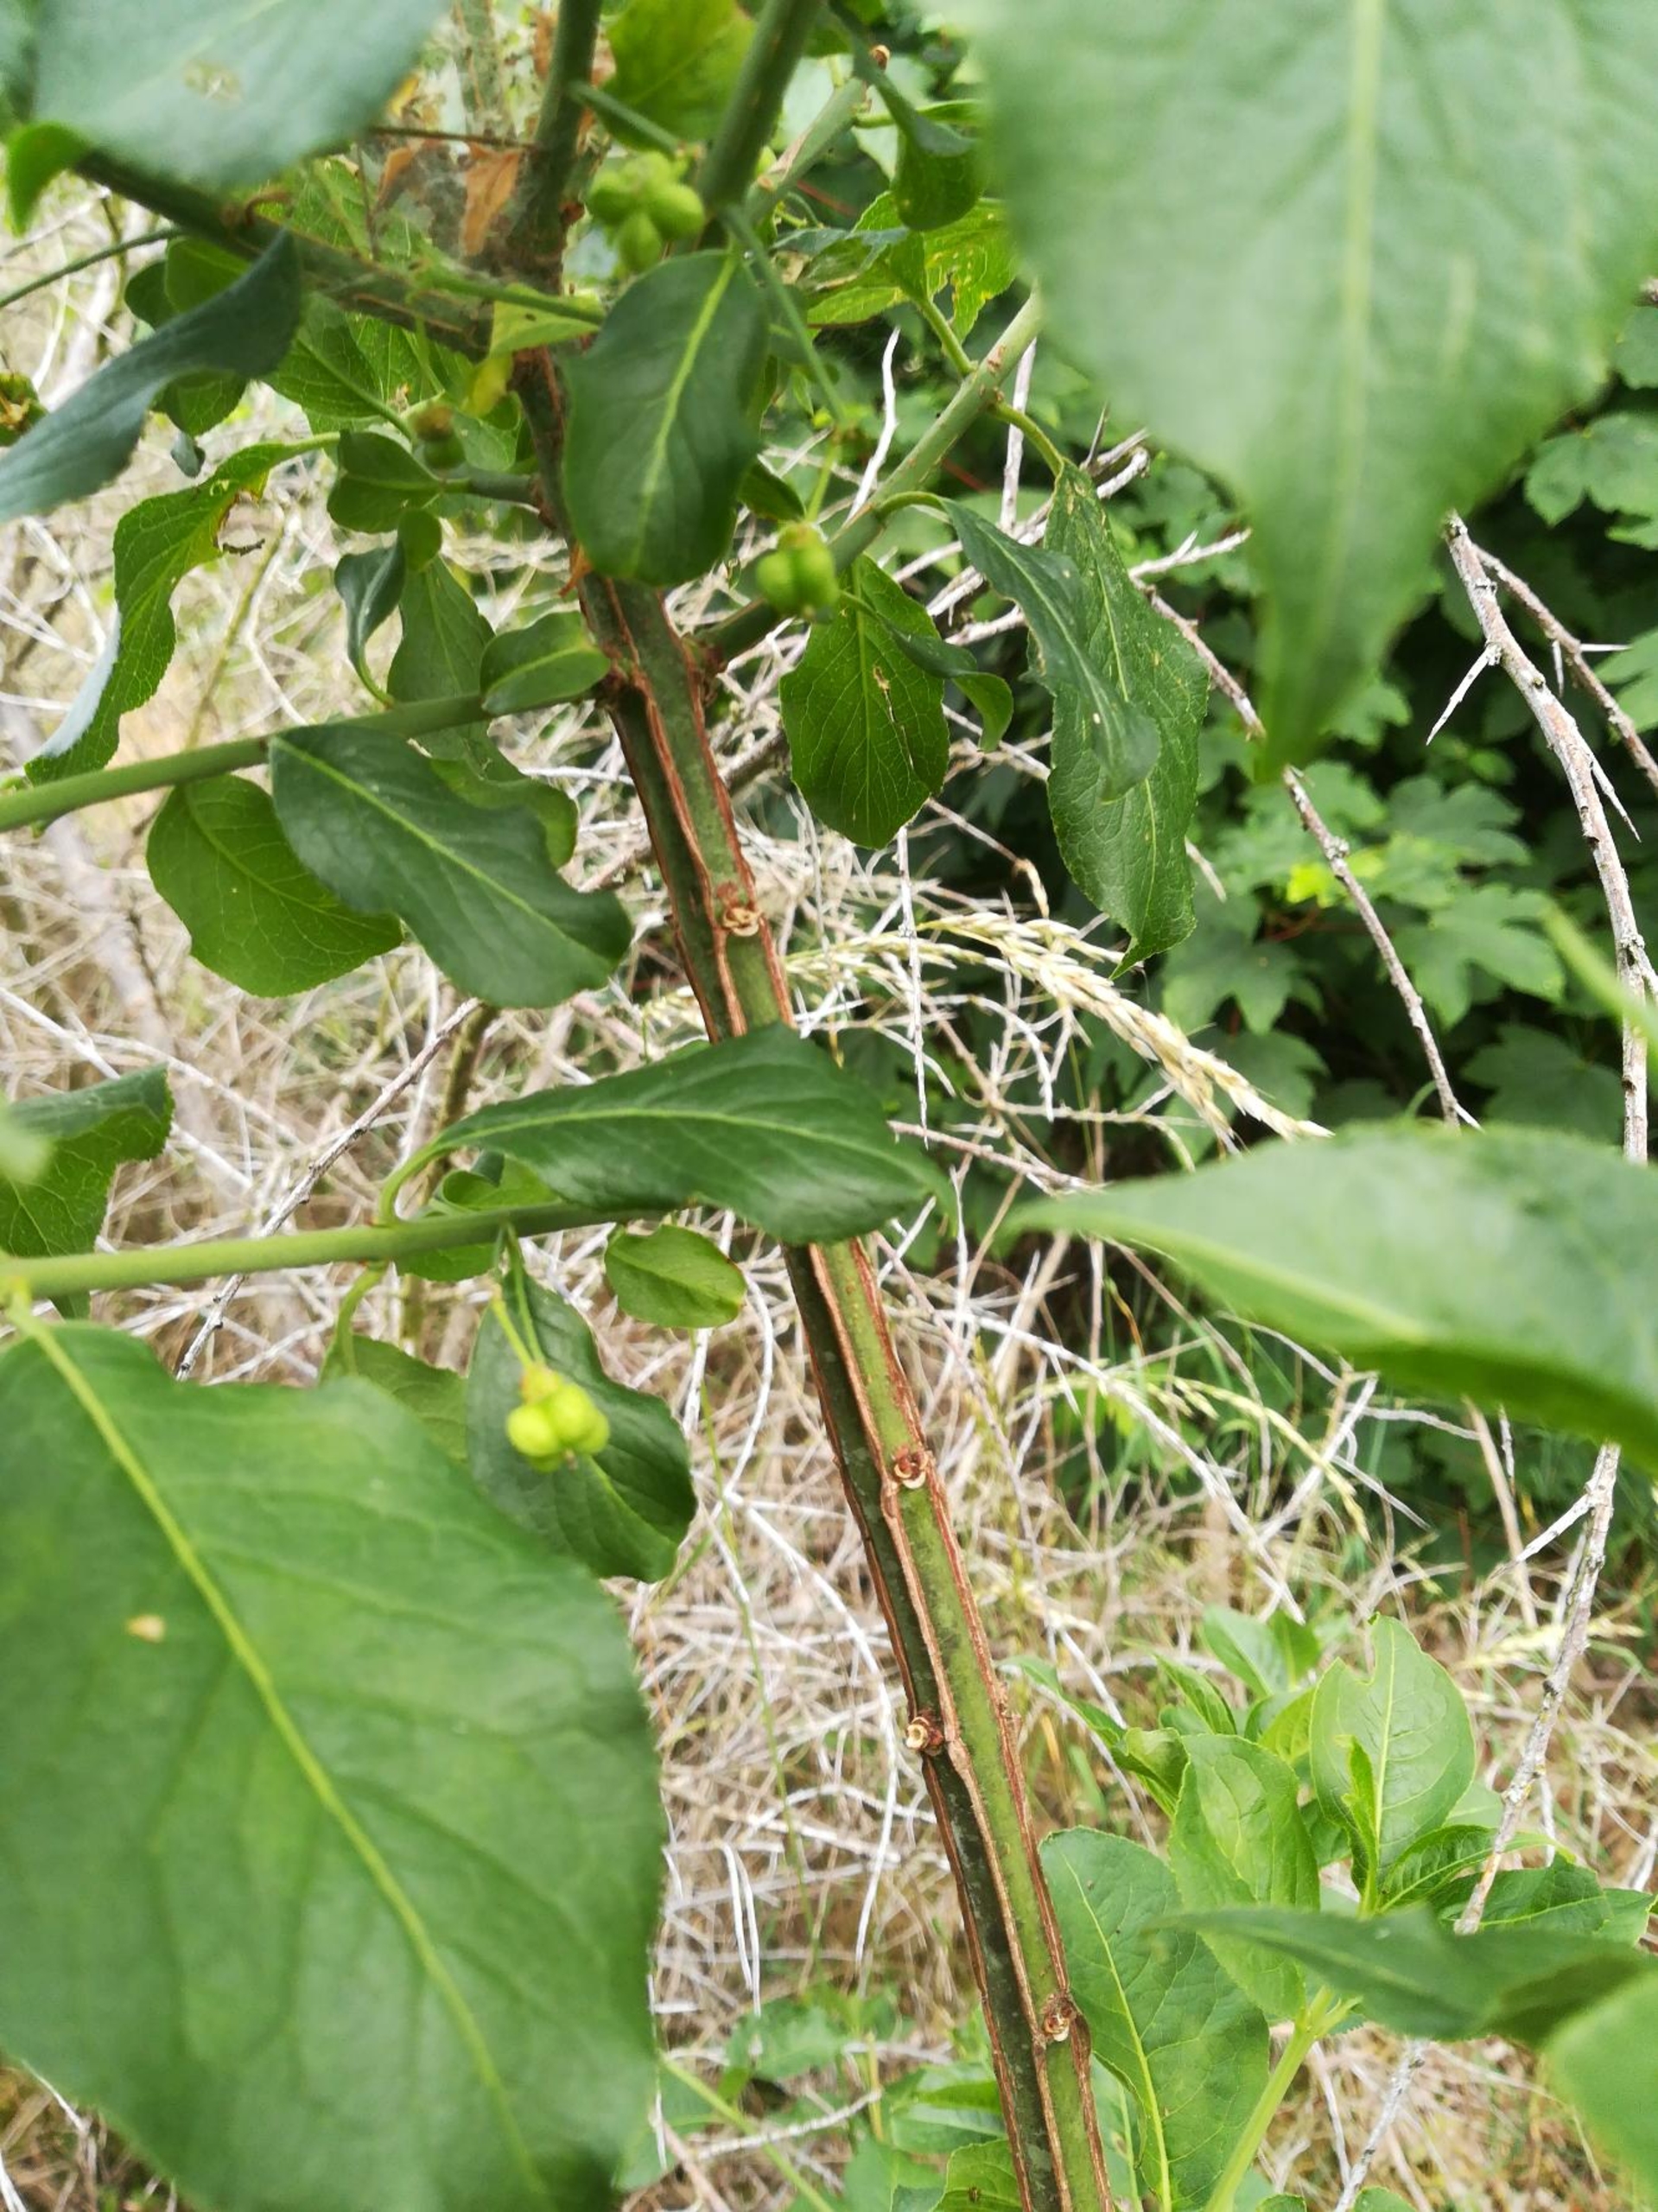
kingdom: Plantae
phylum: Tracheophyta
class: Magnoliopsida
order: Celastrales
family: Celastraceae
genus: Euonymus
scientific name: Euonymus europaeus
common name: Benved
